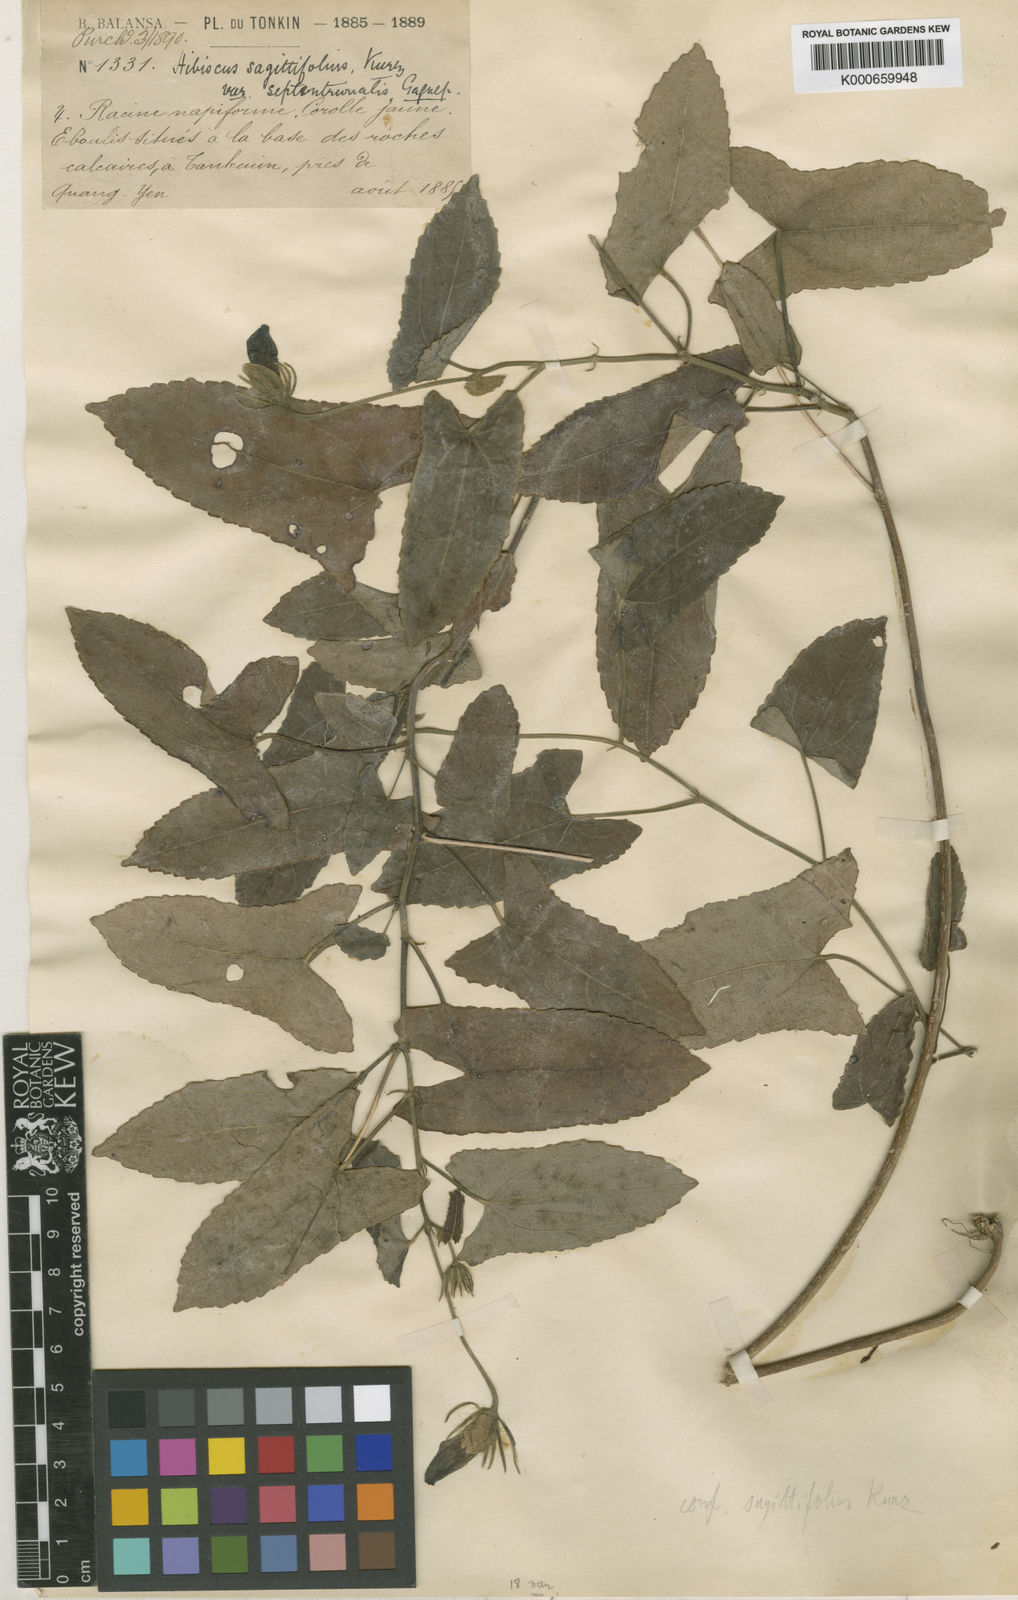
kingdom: Plantae
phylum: Tracheophyta
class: Magnoliopsida
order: Malvales
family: Malvaceae
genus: Abelmoschus
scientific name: Abelmoschus sagittifolius
